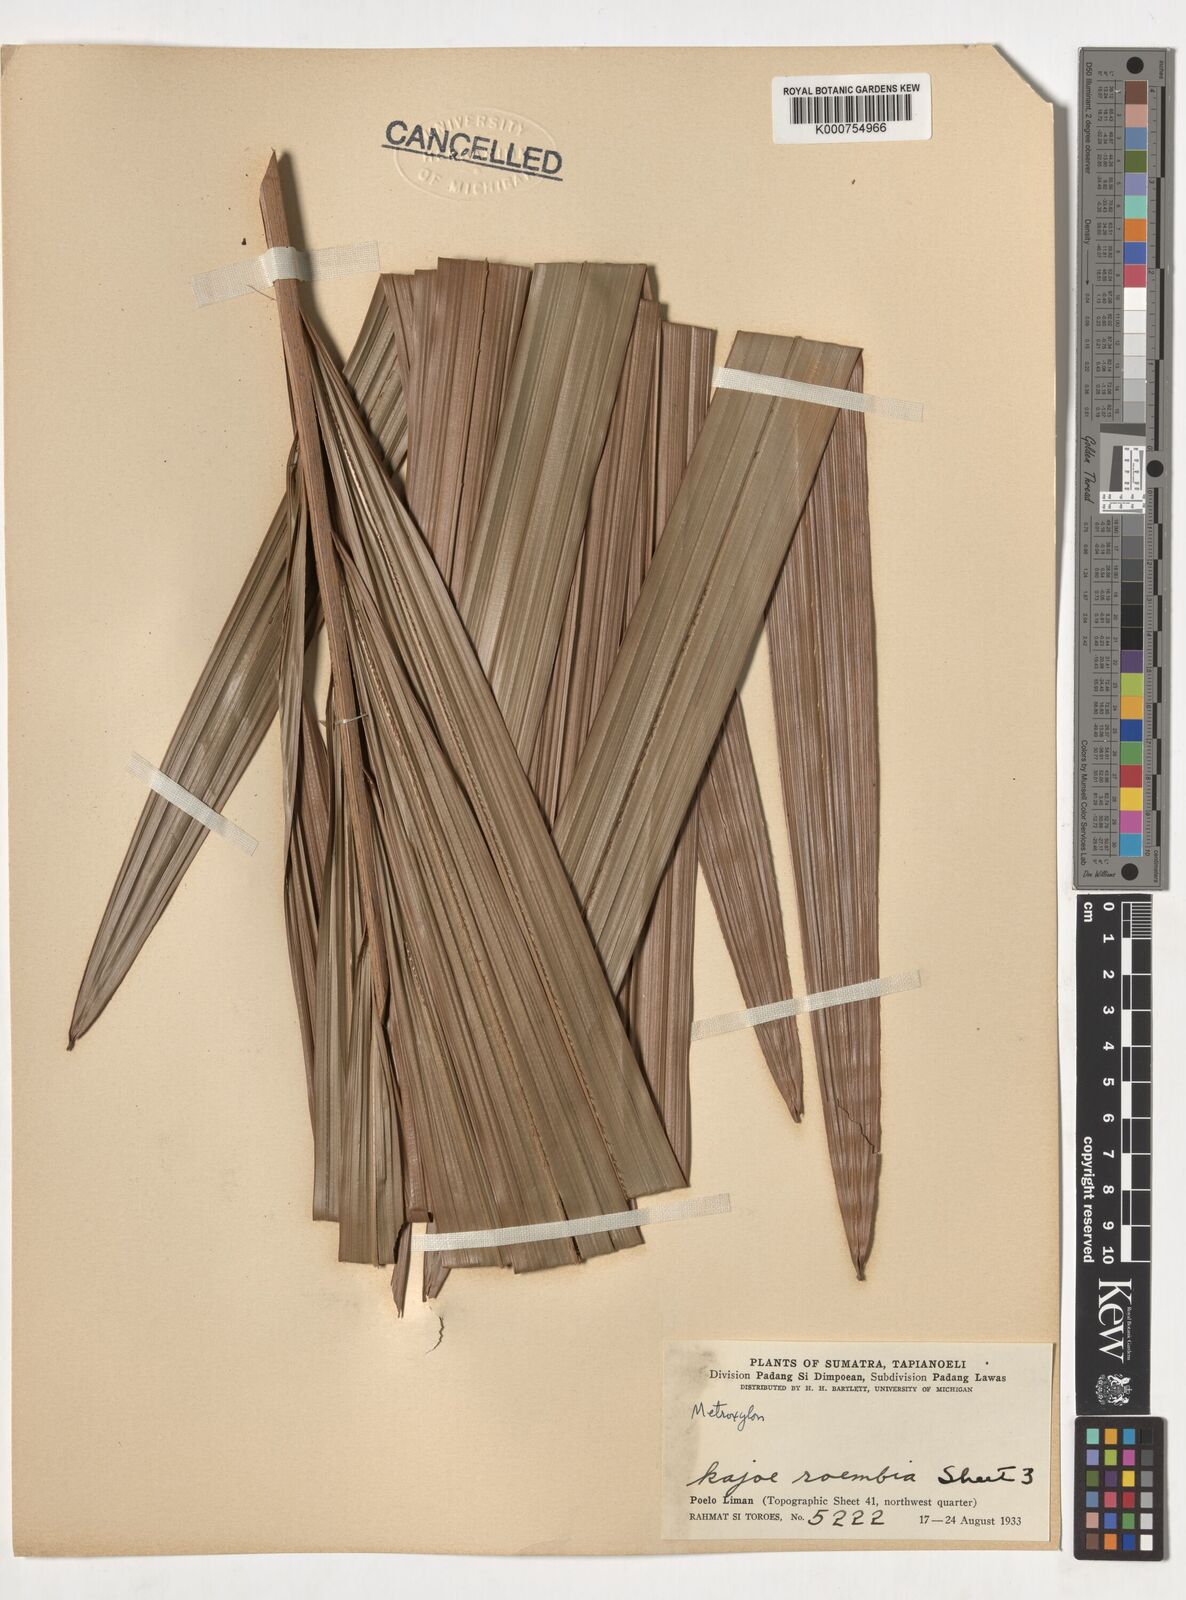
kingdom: Plantae
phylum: Tracheophyta
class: Liliopsida
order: Arecales
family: Arecaceae
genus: Metroxylon
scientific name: Metroxylon
